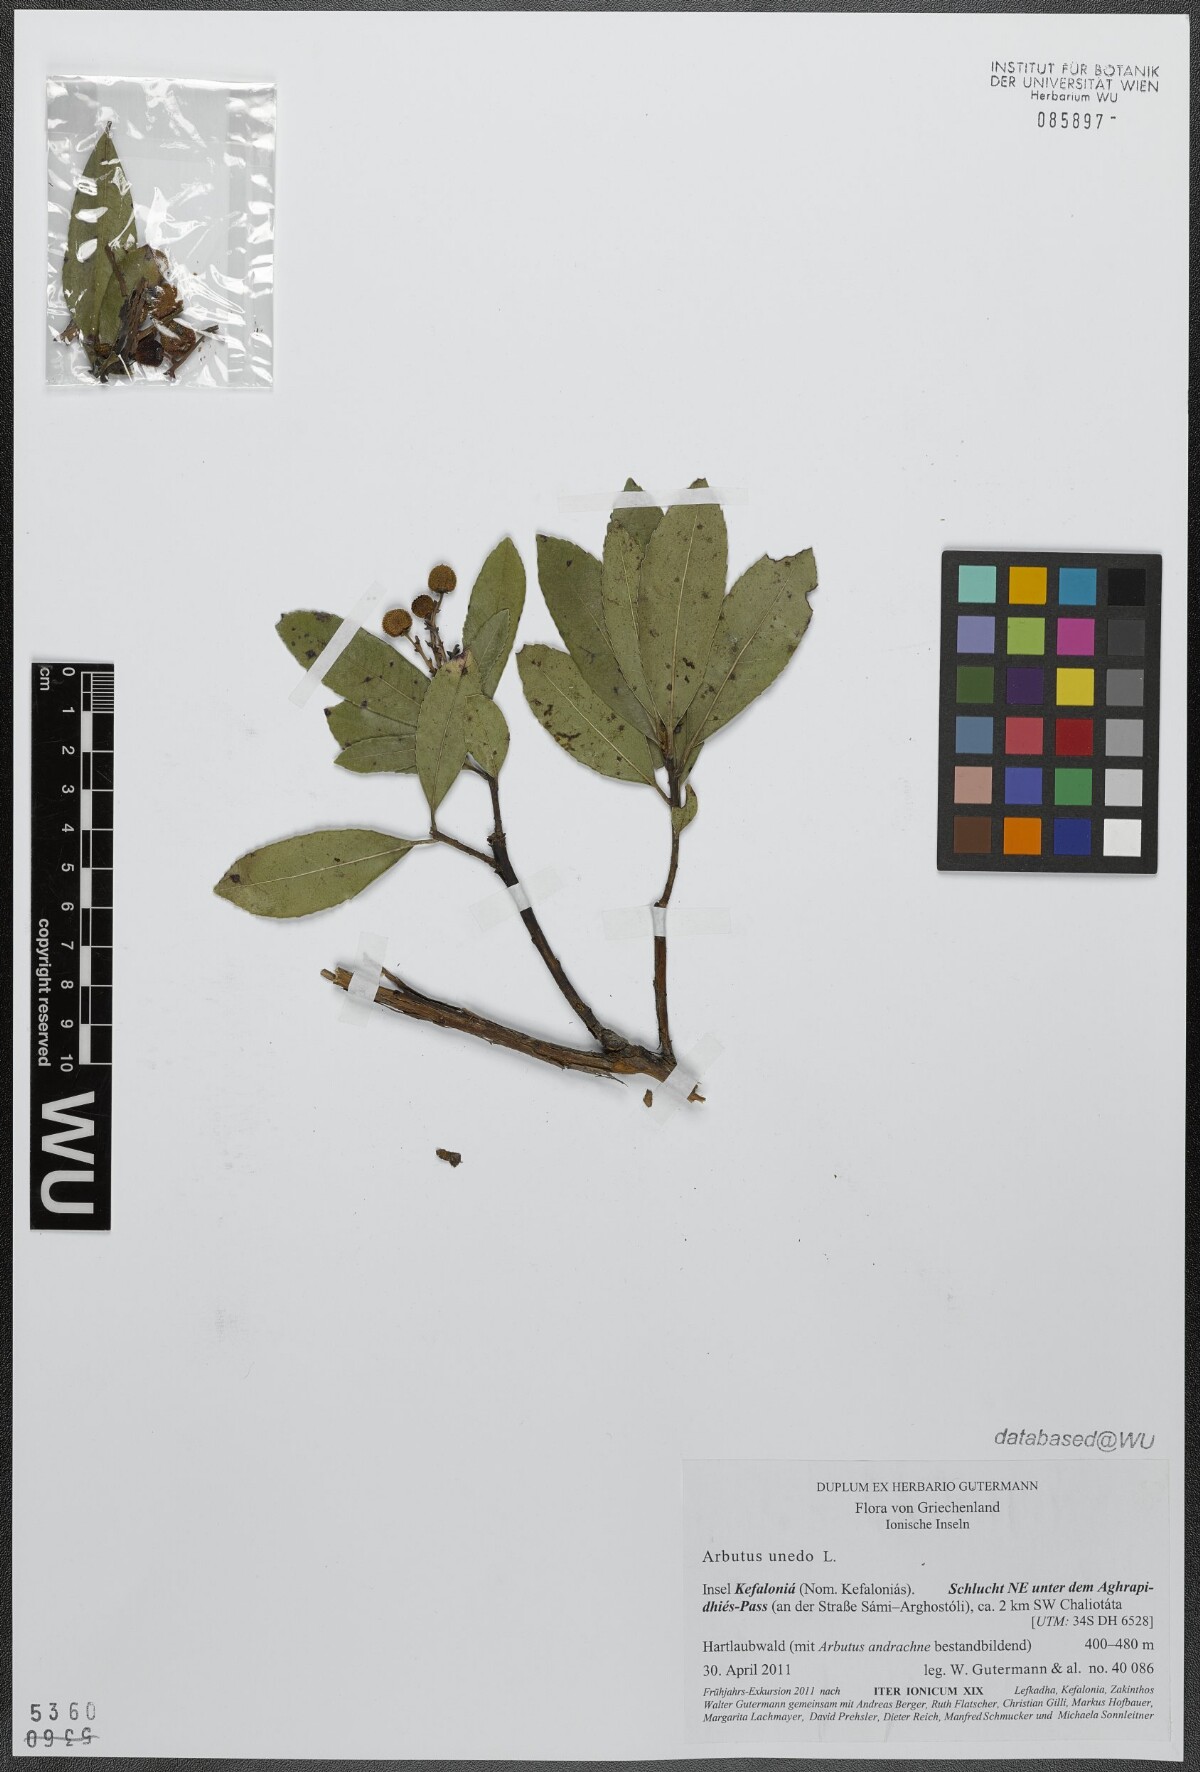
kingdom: Plantae
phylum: Tracheophyta
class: Magnoliopsida
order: Ericales
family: Ericaceae
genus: Arbutus
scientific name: Arbutus unedo
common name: Strawberry-tree
